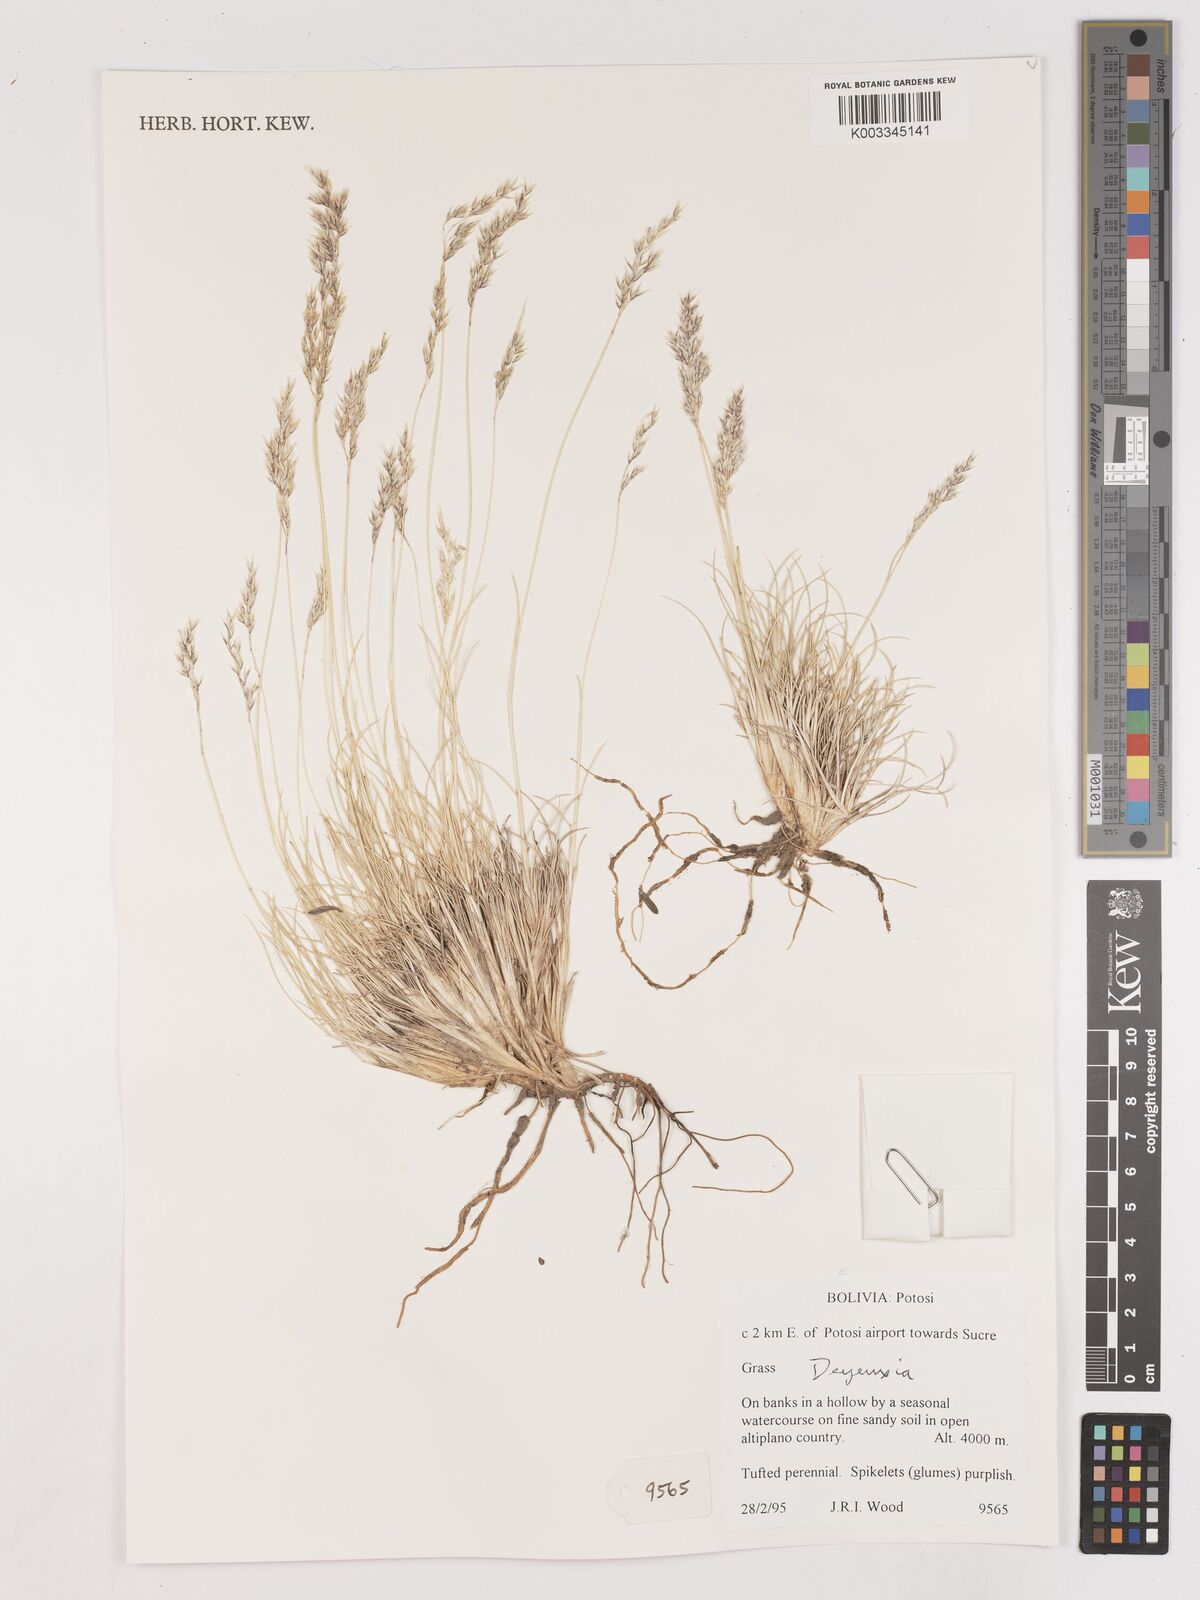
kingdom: Plantae
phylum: Tracheophyta
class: Liliopsida
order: Poales
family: Poaceae
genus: Calamagrostis
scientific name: Calamagrostis
